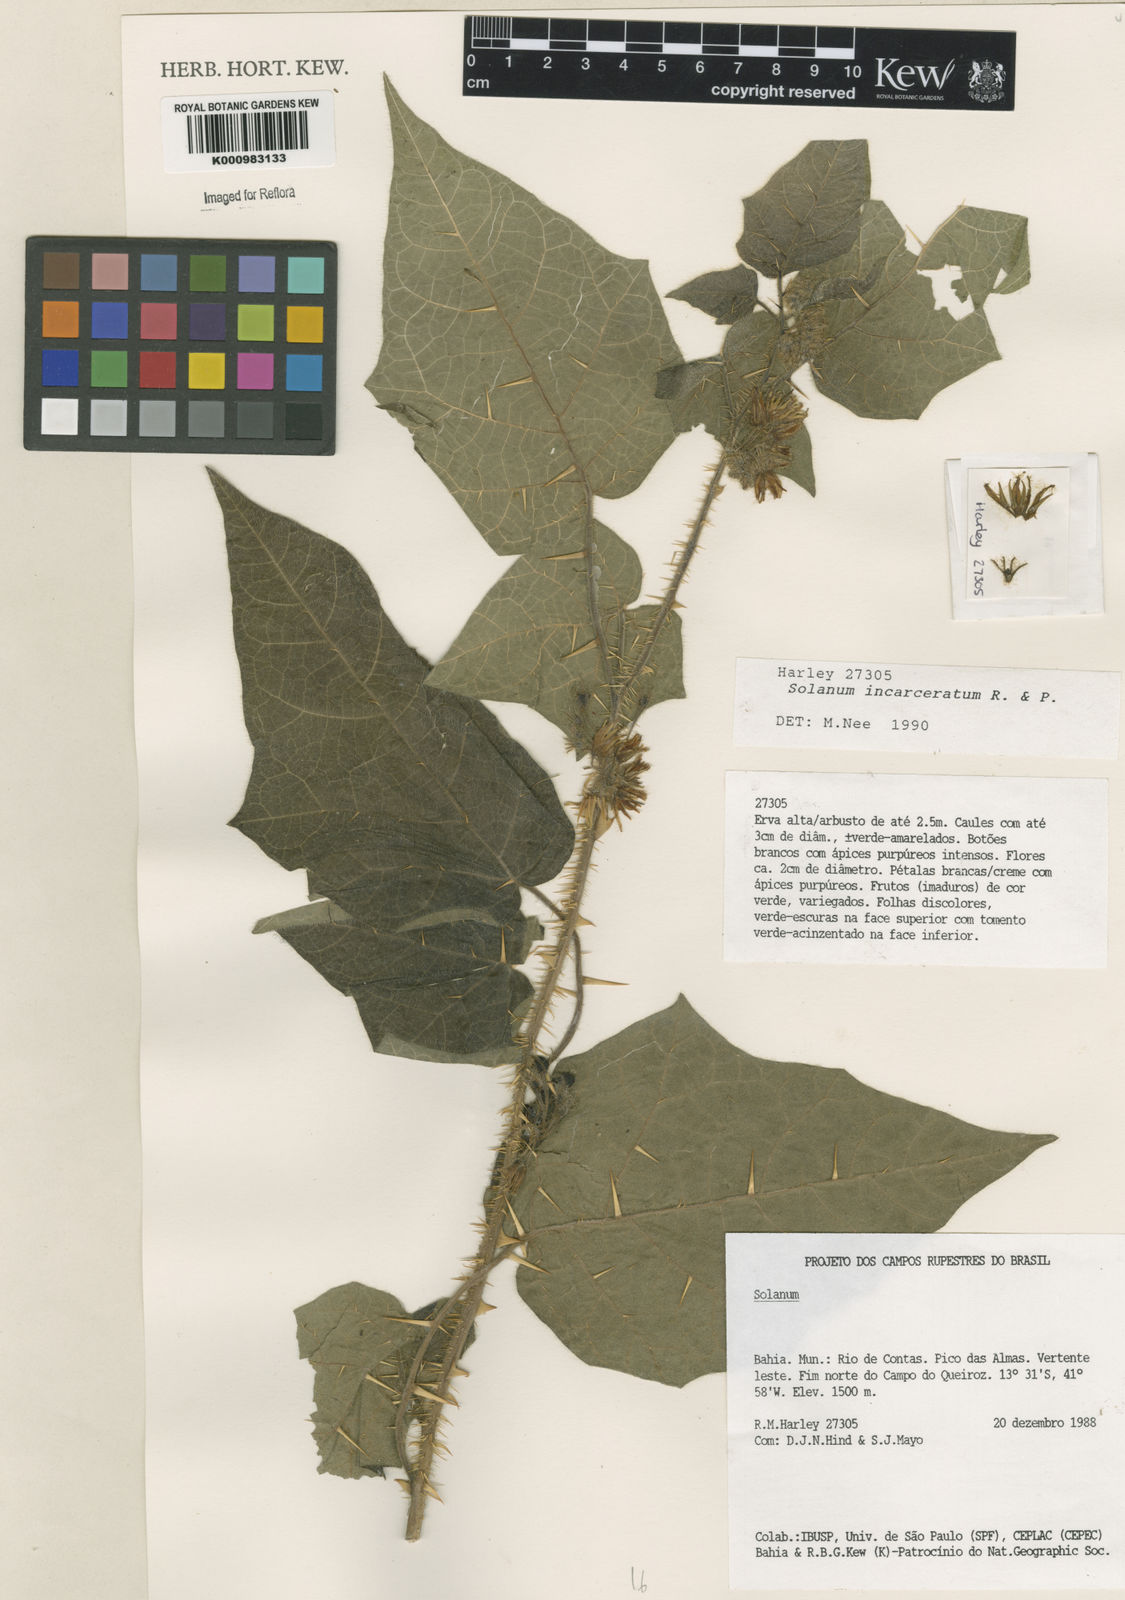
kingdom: Plantae
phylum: Tracheophyta
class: Magnoliopsida
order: Solanales
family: Solanaceae
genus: Solanum
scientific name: Solanum incarceratum
